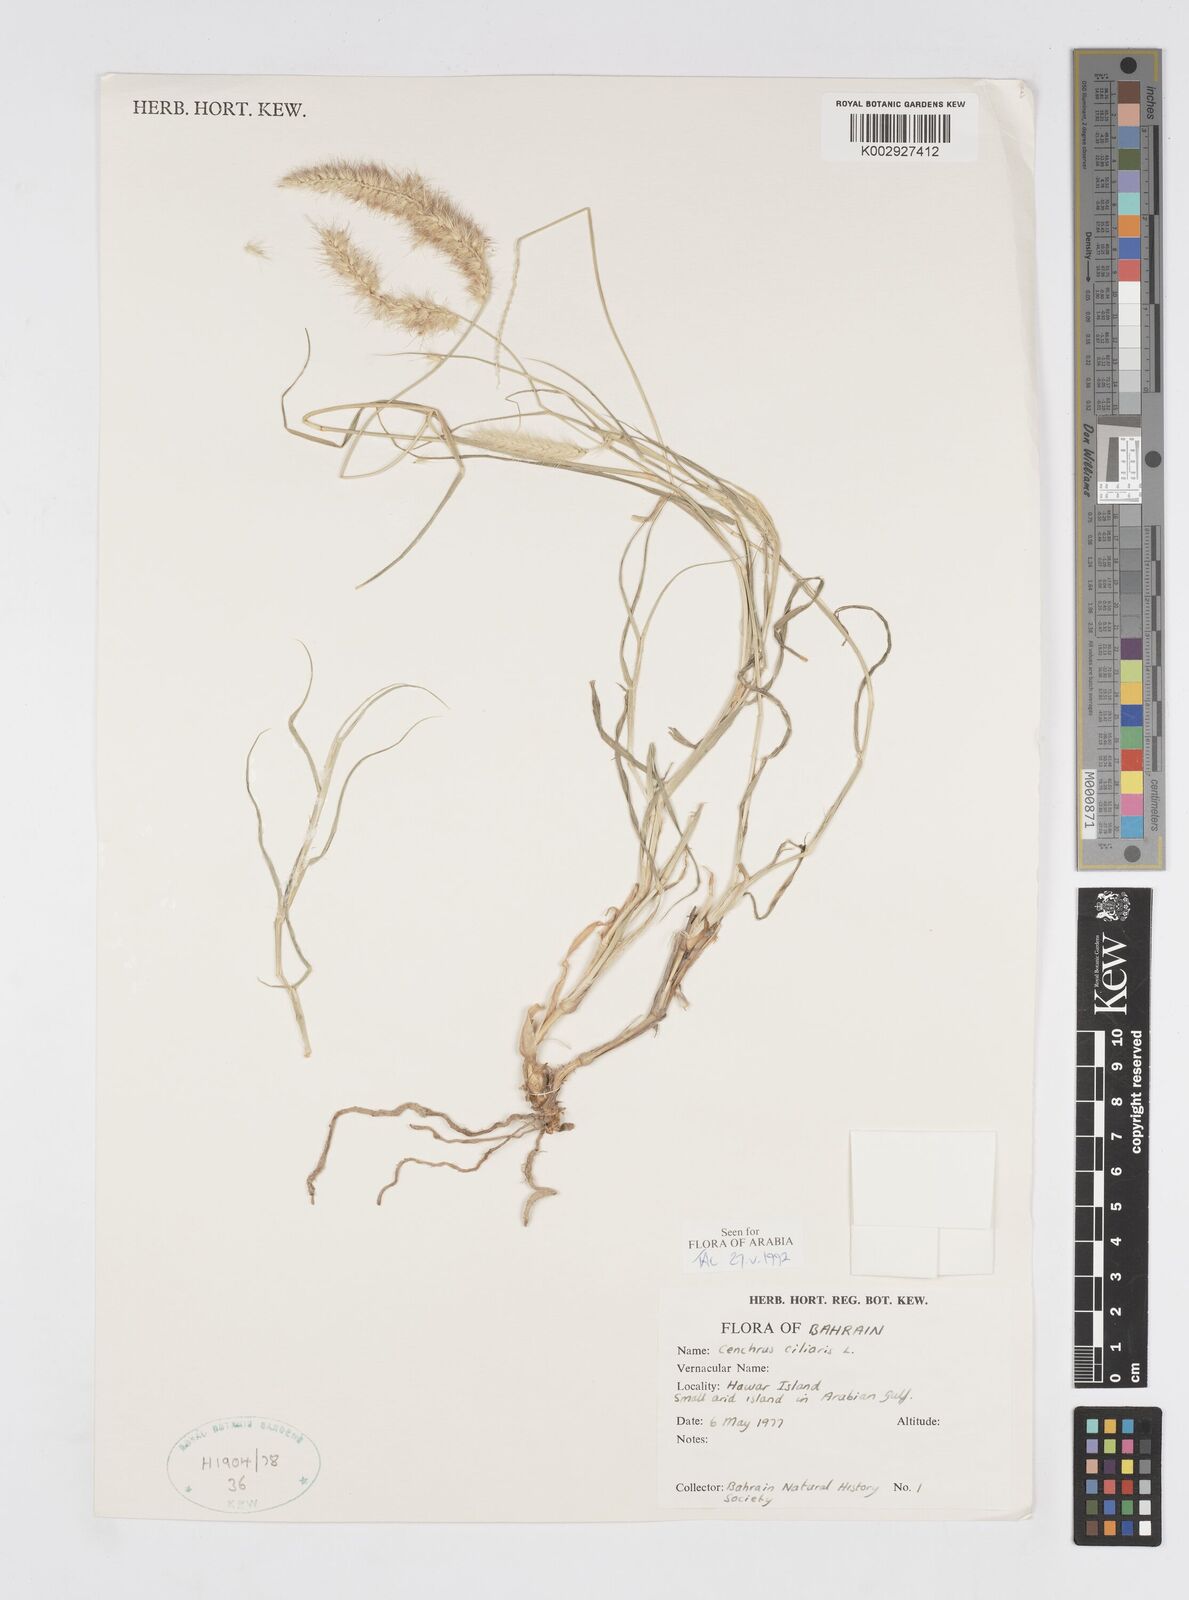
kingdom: Plantae
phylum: Tracheophyta
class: Liliopsida
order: Poales
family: Poaceae
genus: Cenchrus
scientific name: Cenchrus ciliaris
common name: Buffelgrass
